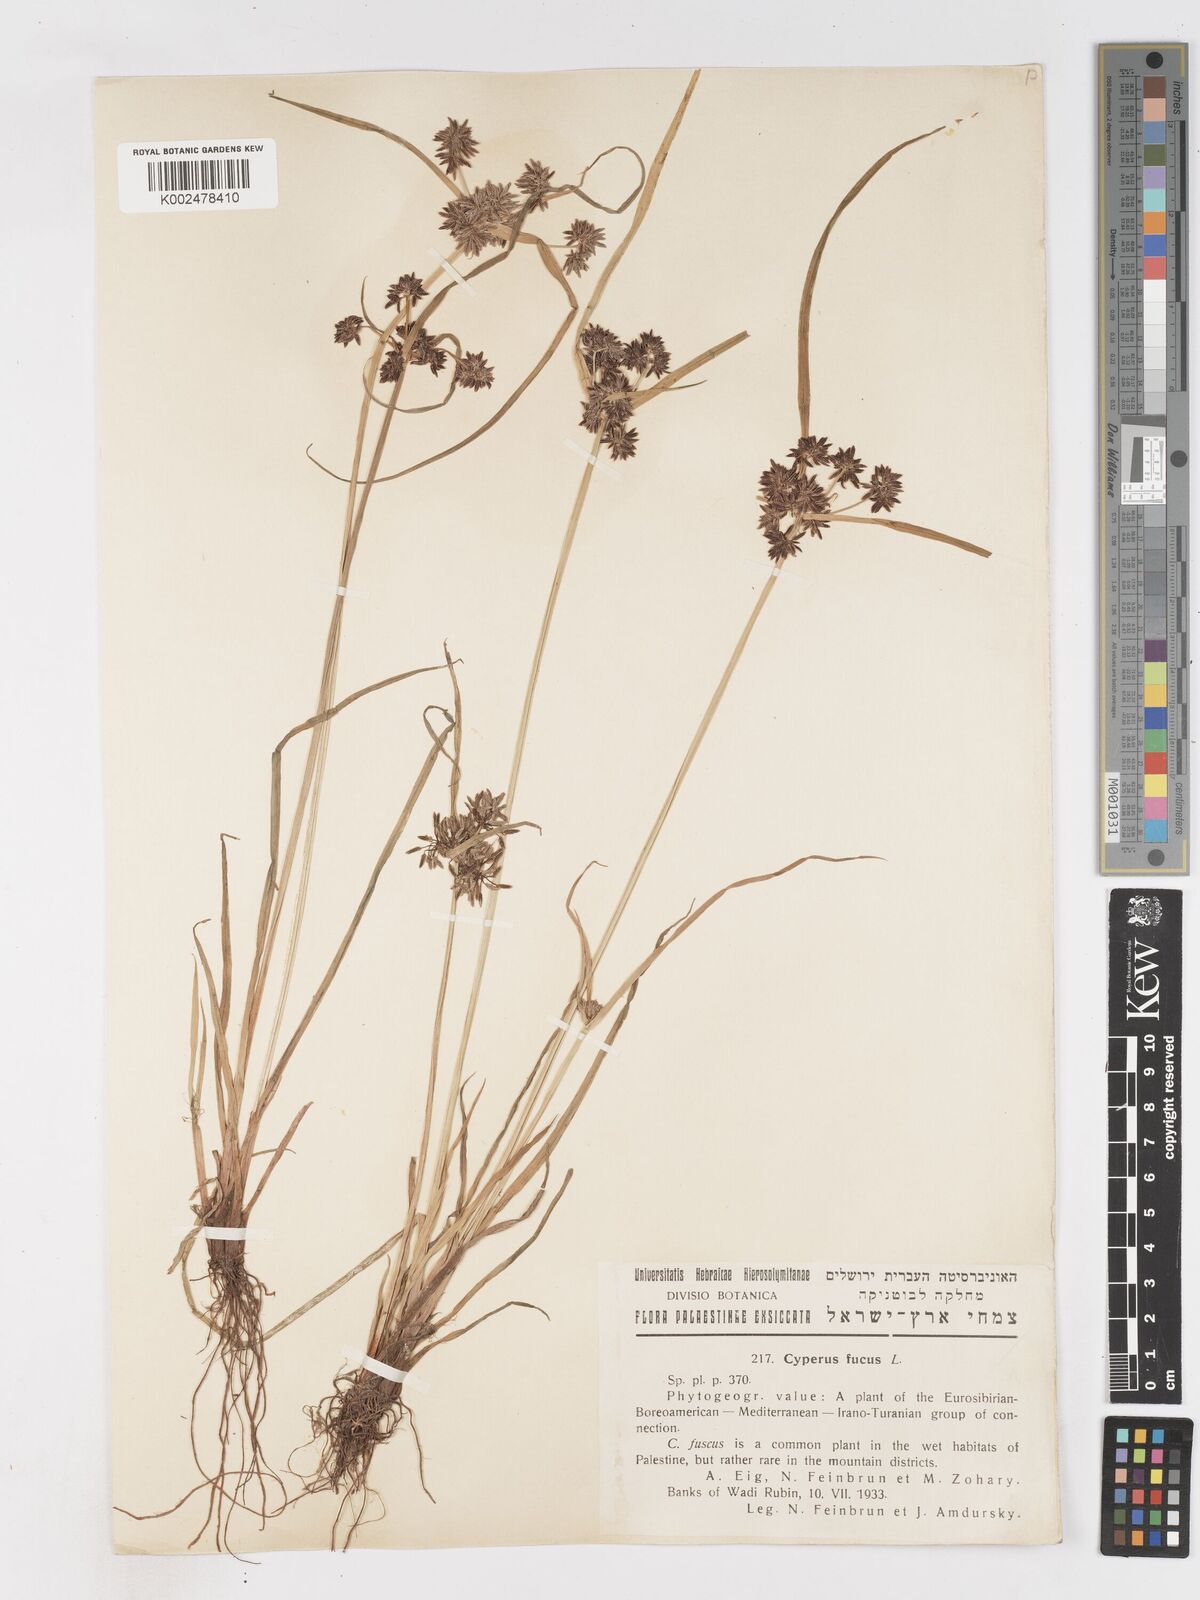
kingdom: Plantae
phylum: Tracheophyta
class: Liliopsida
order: Poales
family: Cyperaceae
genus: Cyperus
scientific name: Cyperus fuscus
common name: Brown galingale
